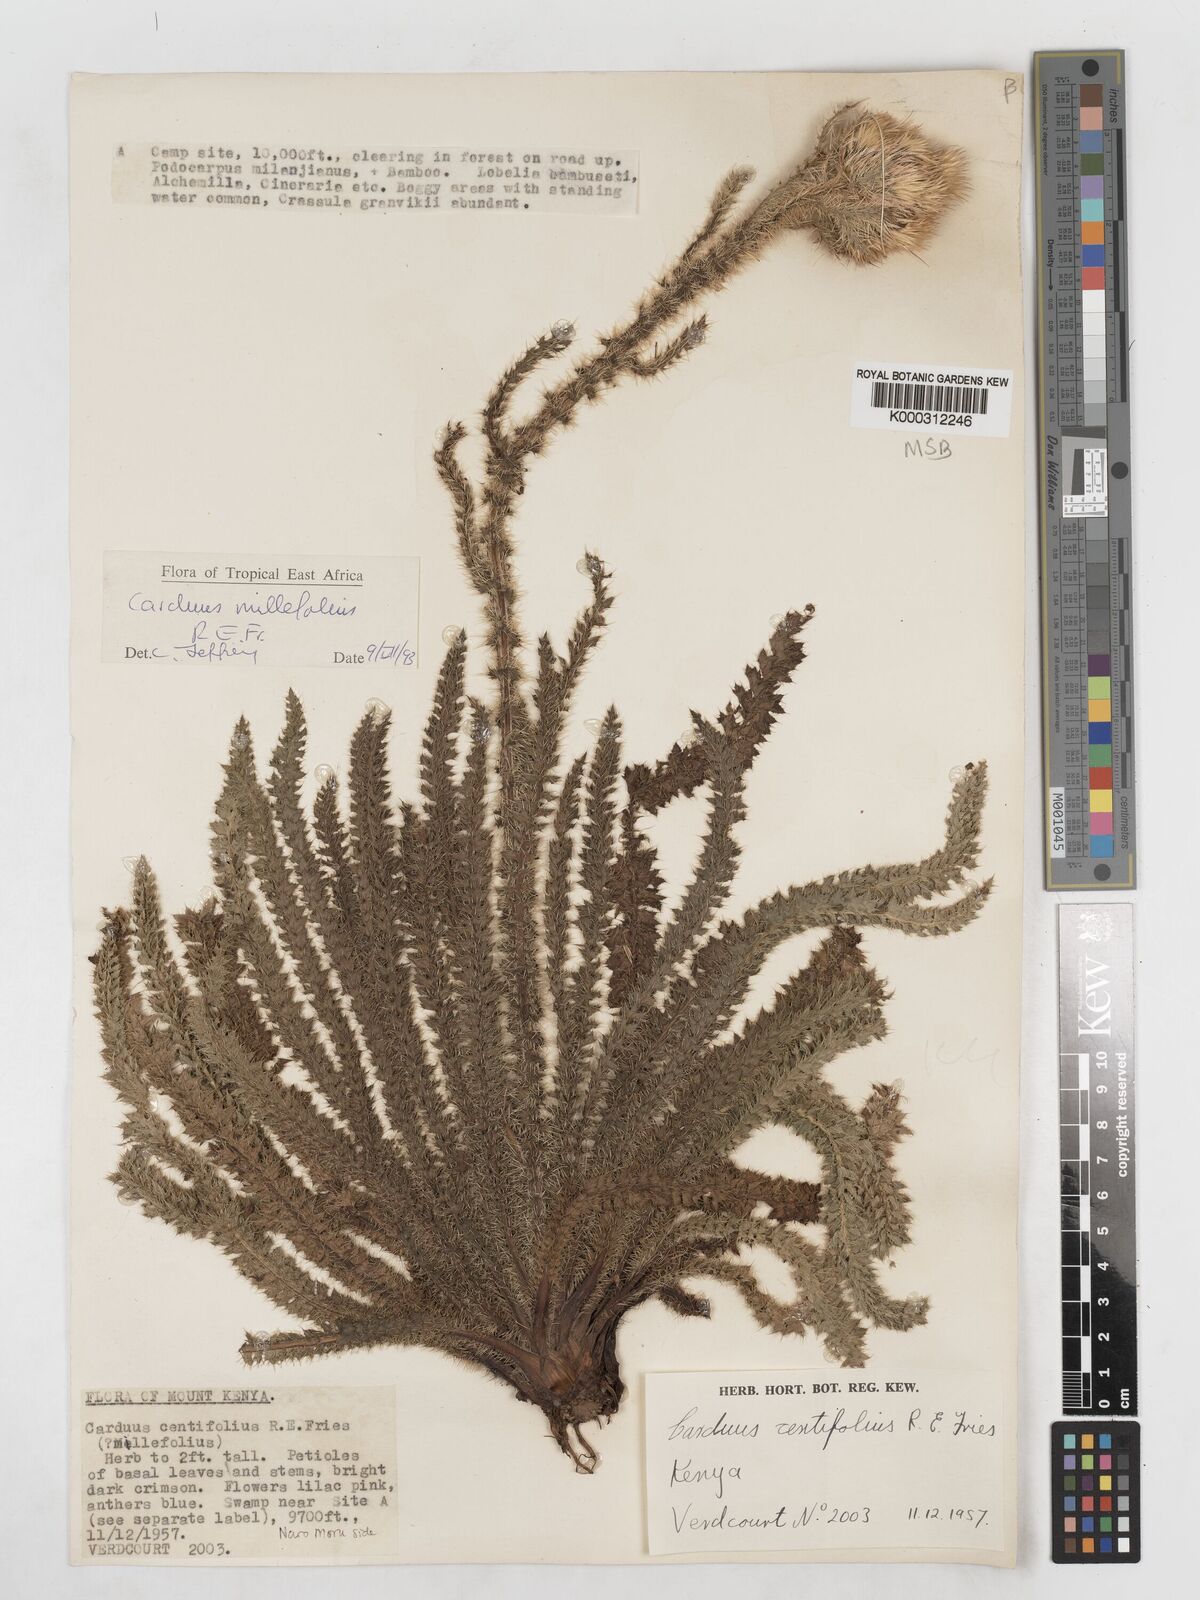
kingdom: Plantae
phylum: Tracheophyta
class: Magnoliopsida
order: Asterales
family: Asteraceae
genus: Carduus
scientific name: Carduus millefolius
